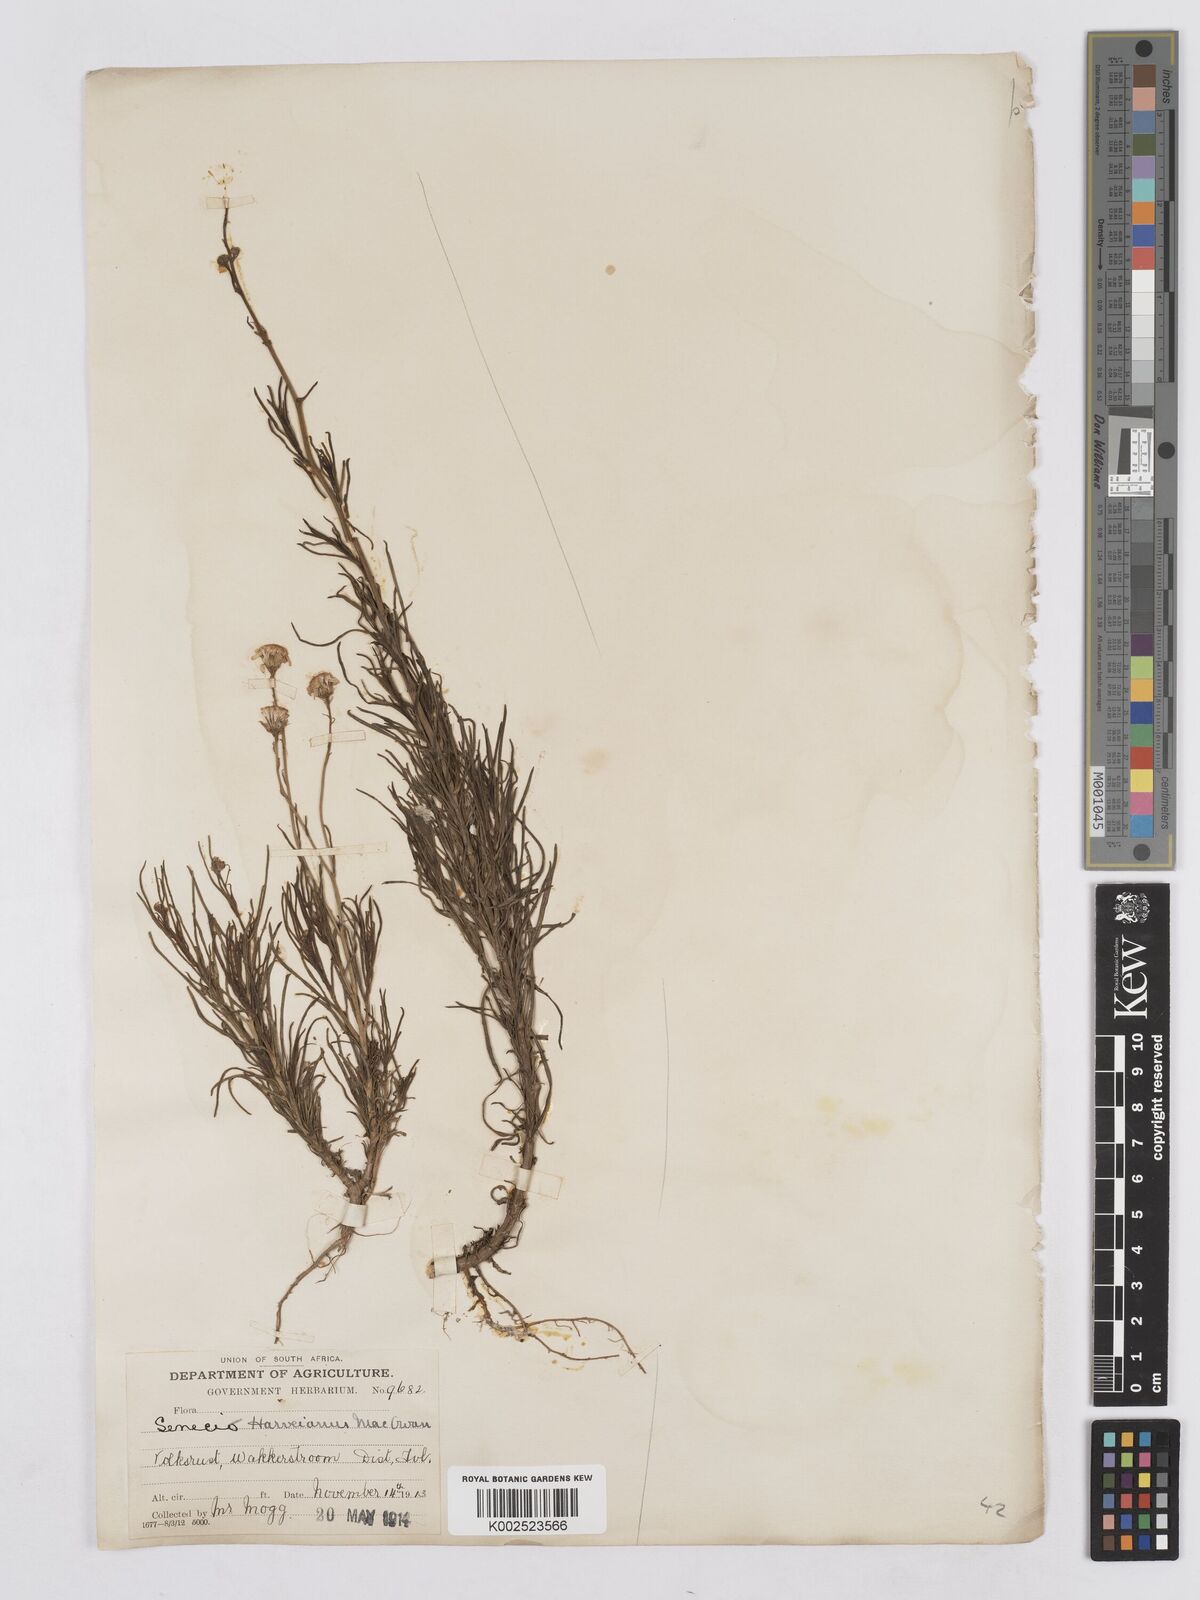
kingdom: Plantae
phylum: Tracheophyta
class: Magnoliopsida
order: Asterales
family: Asteraceae
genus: Senecio
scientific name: Senecio inaequidens
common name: Narrow-leaved ragwort
